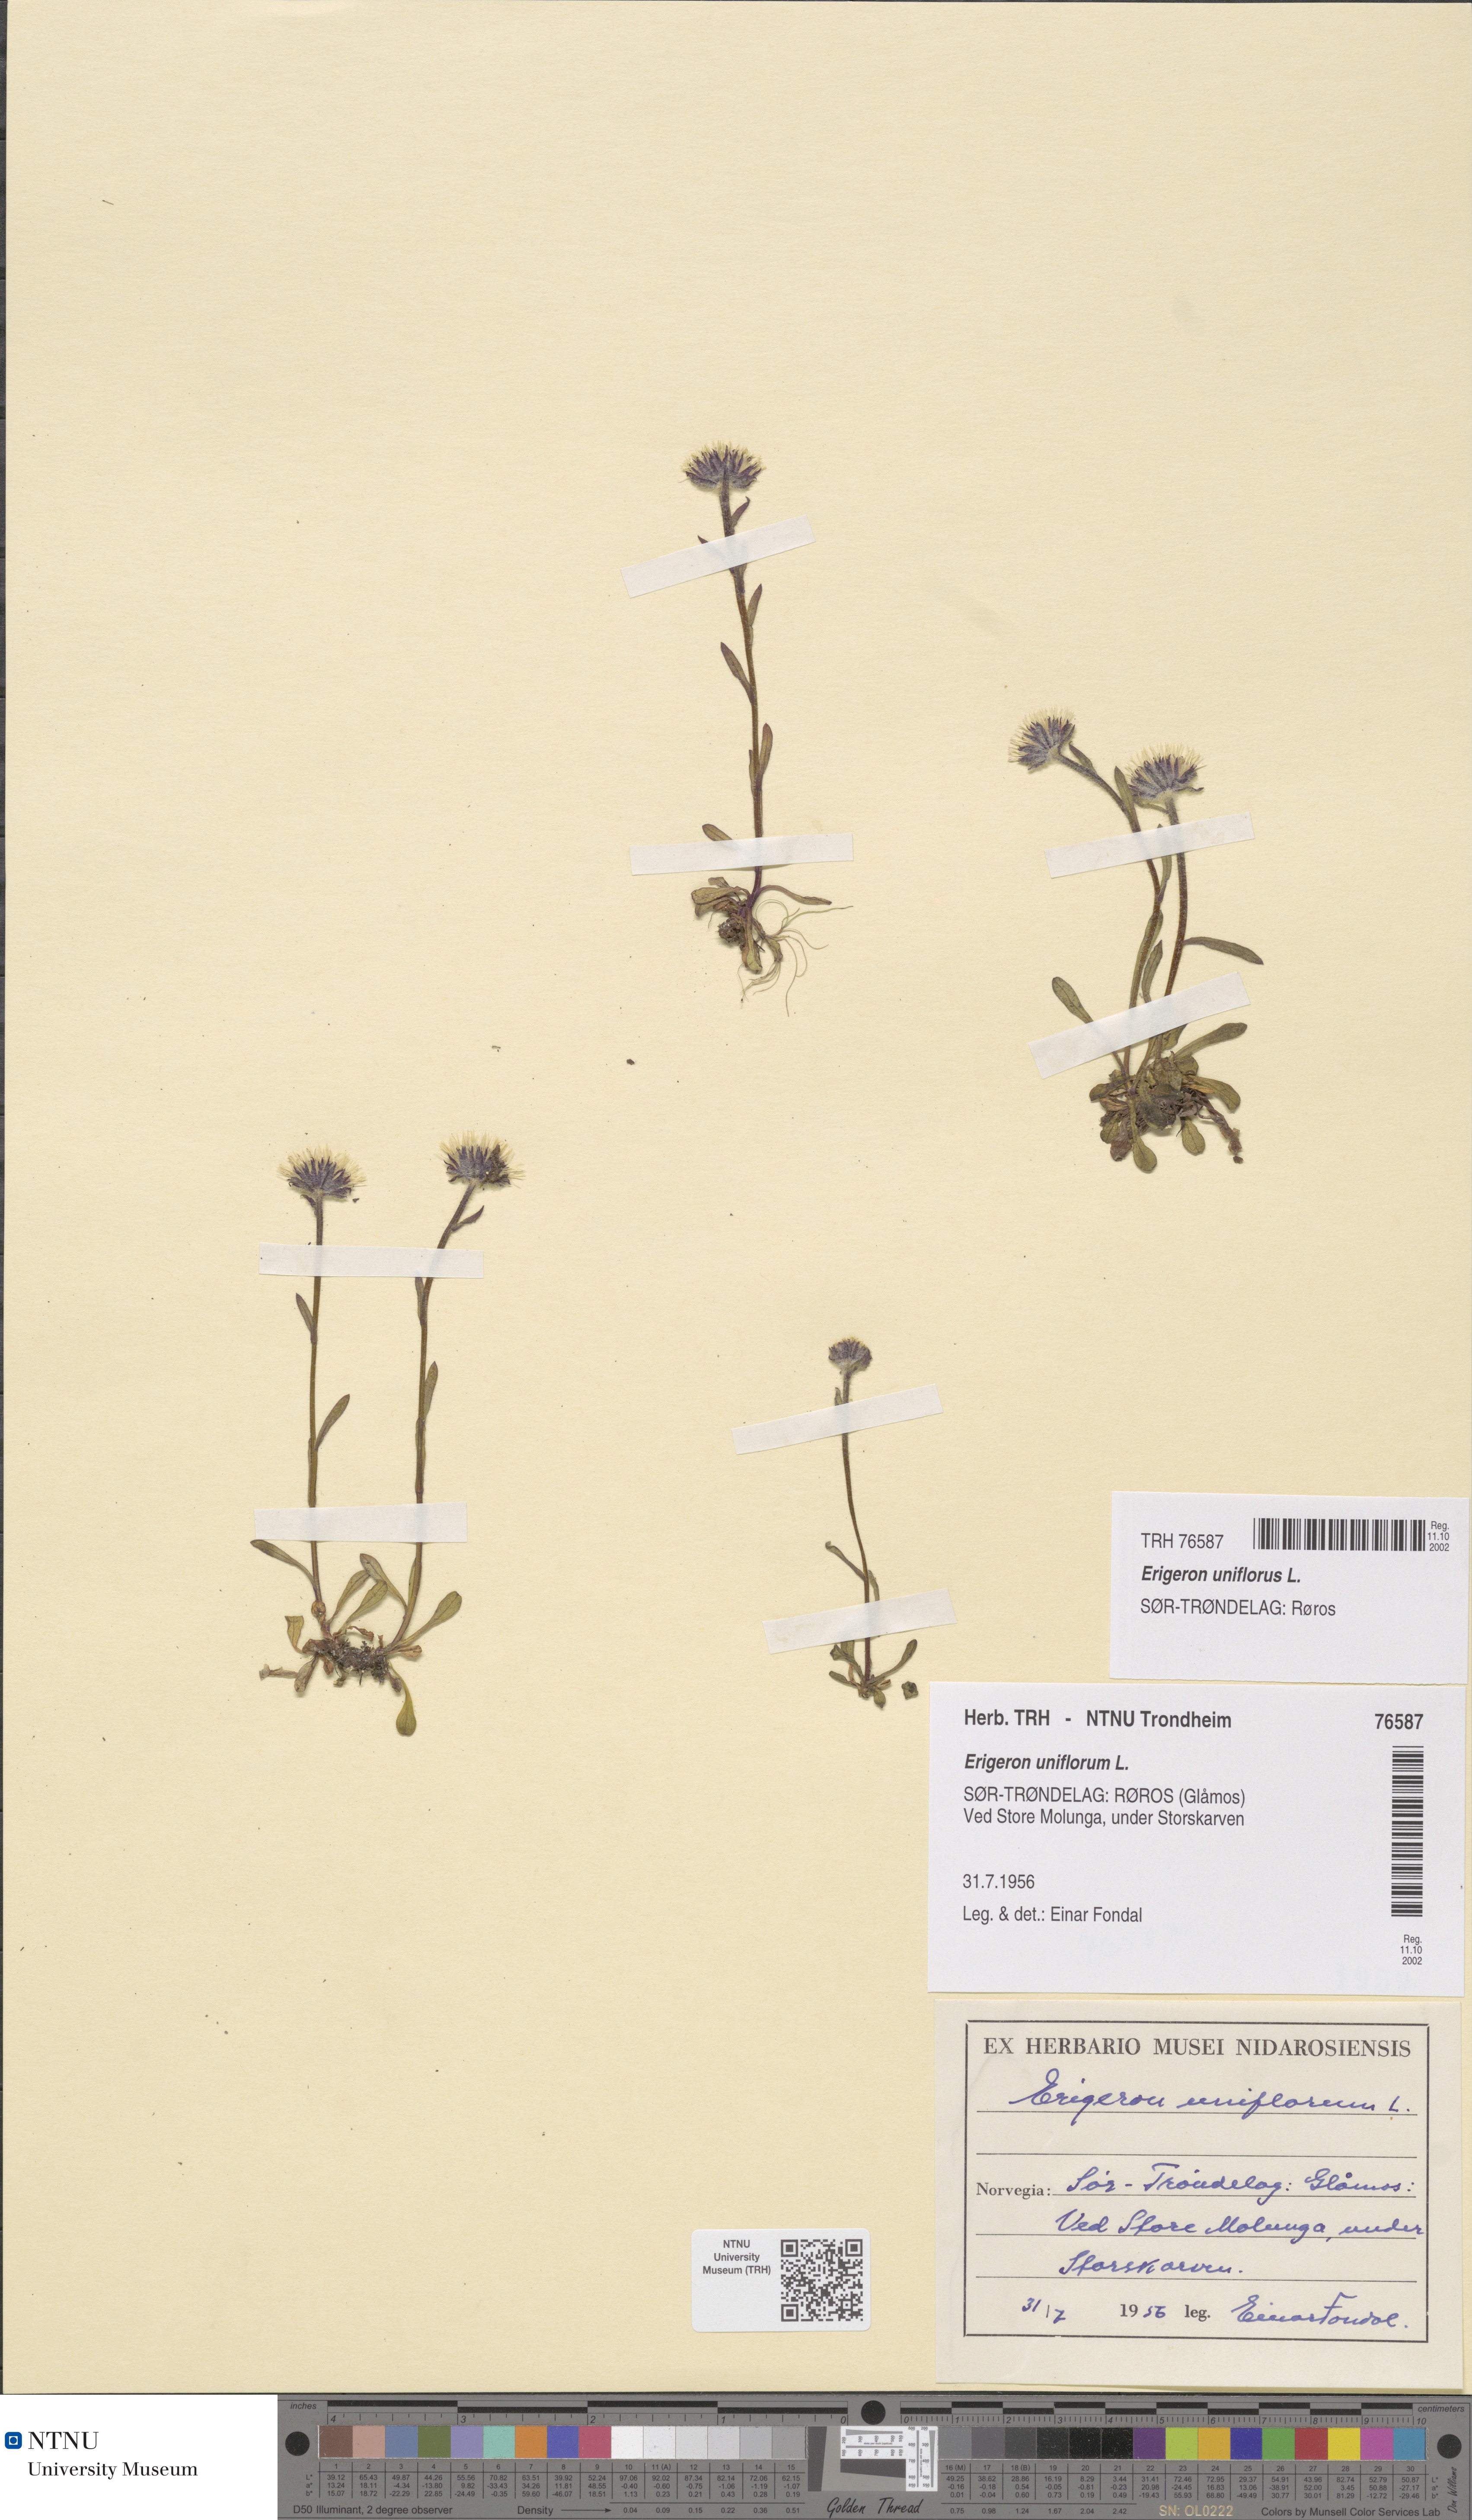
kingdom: Plantae
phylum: Tracheophyta
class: Magnoliopsida
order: Asterales
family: Asteraceae
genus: Erigeron
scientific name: Erigeron uniflorus
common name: Northern daisy
